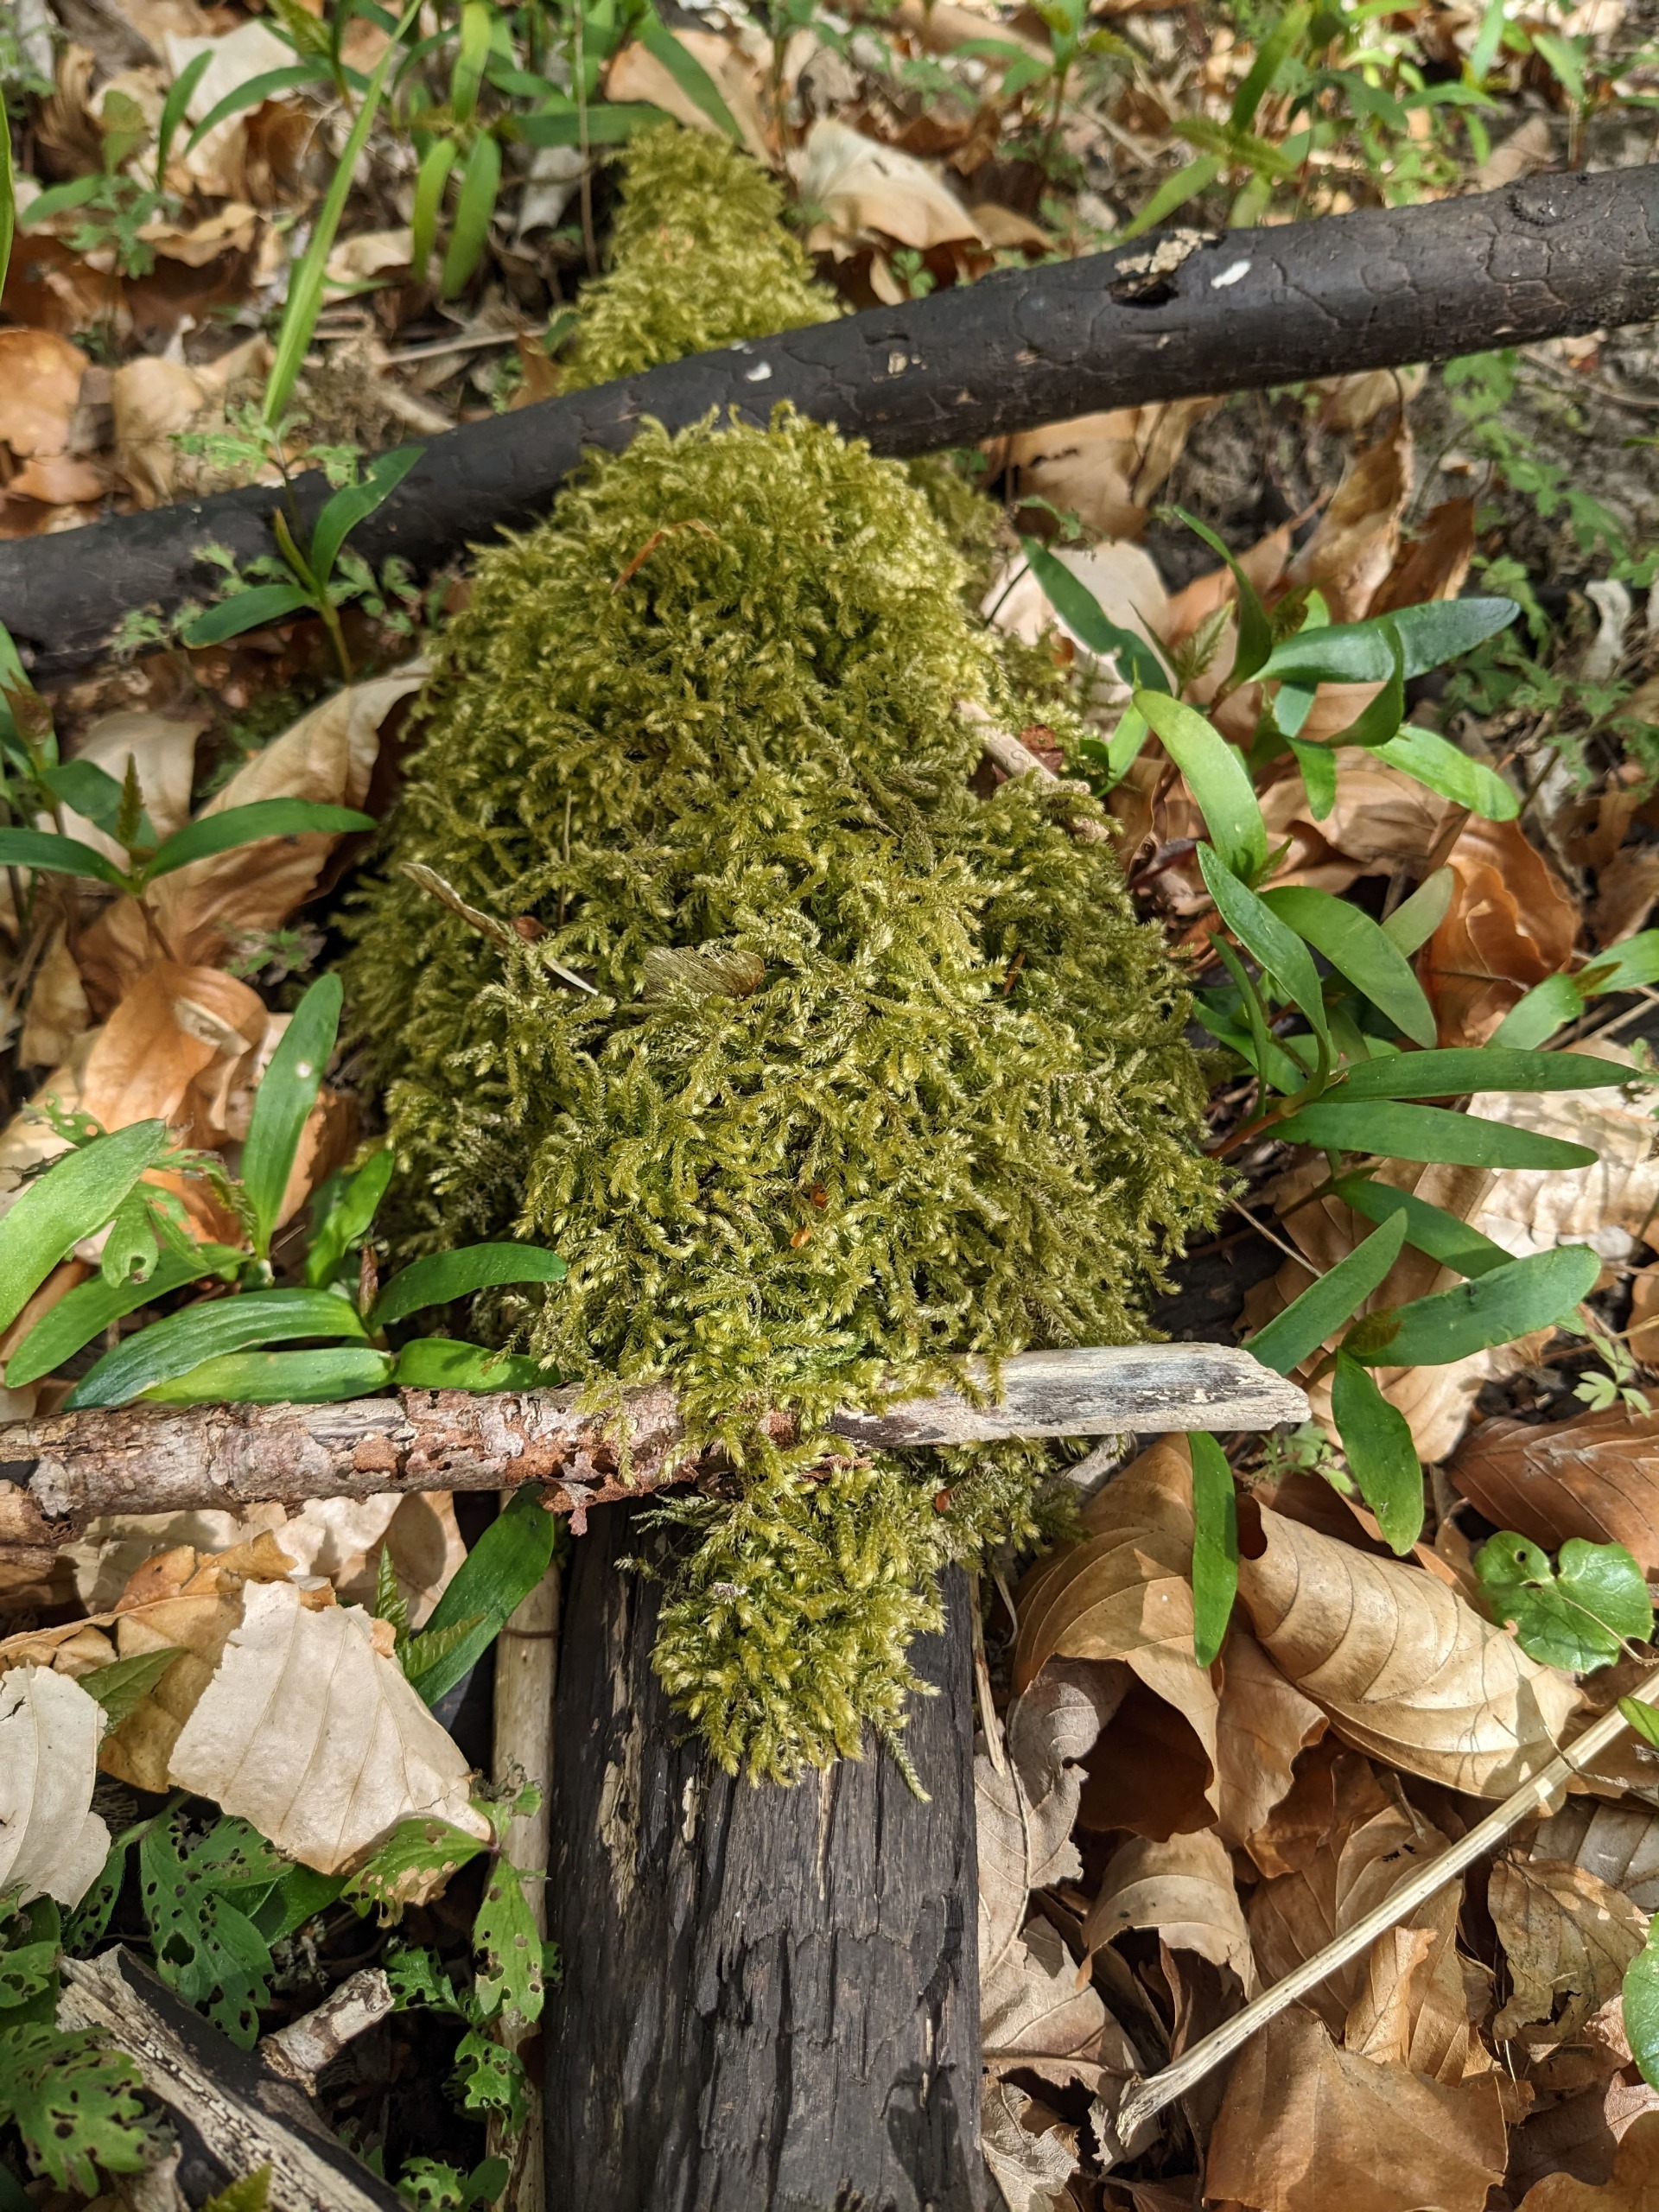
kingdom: Plantae
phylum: Bryophyta
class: Bryopsida
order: Hypnales
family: Brachytheciaceae
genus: Eurhynchium
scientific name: Eurhynchium striatum
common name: Stribet næbmos
